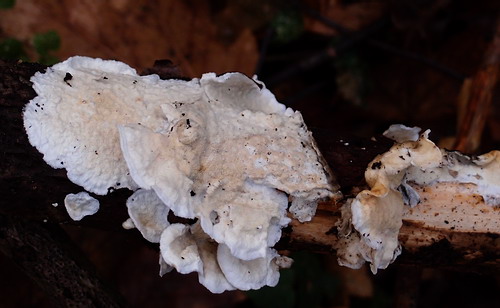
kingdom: Fungi
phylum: Basidiomycota
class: Agaricomycetes
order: Polyporales
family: Irpicaceae
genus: Byssomerulius
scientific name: Byssomerulius corium
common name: læder-åresvamp
